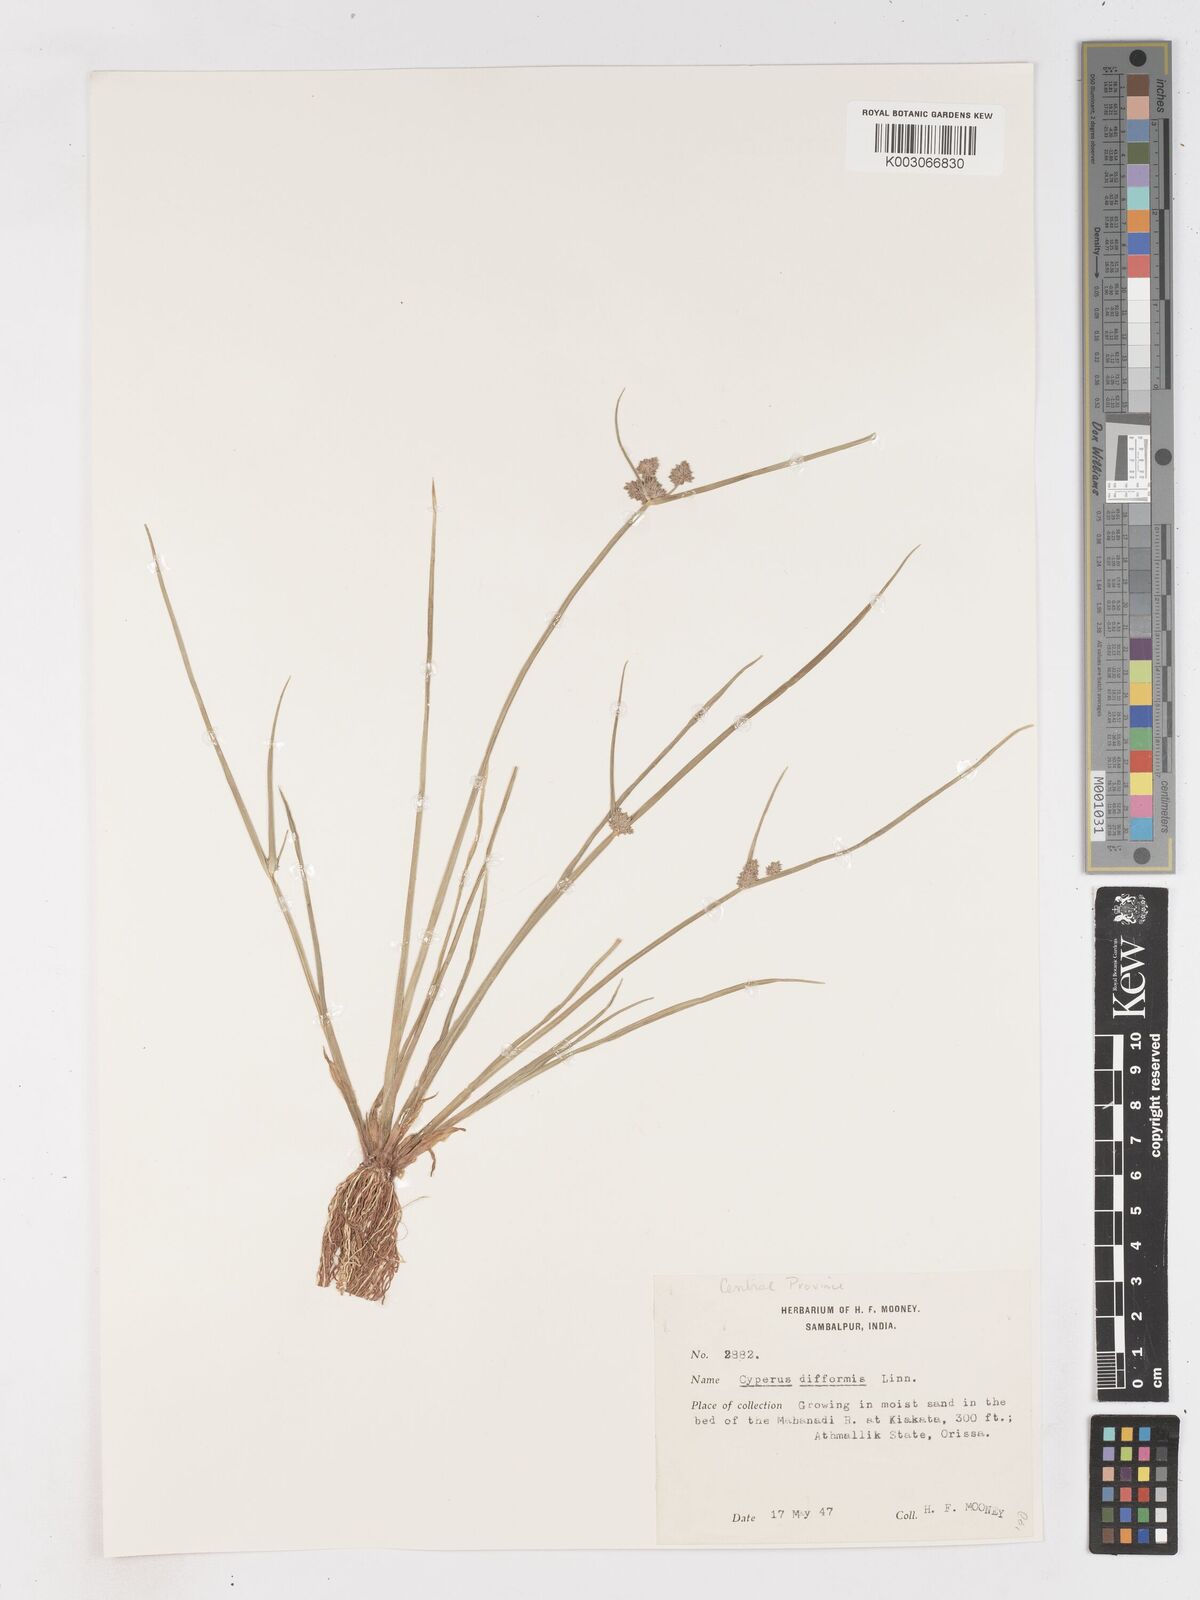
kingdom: Plantae
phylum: Tracheophyta
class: Liliopsida
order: Poales
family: Cyperaceae
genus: Cyperus
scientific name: Cyperus difformis
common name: Variable flatsedge
